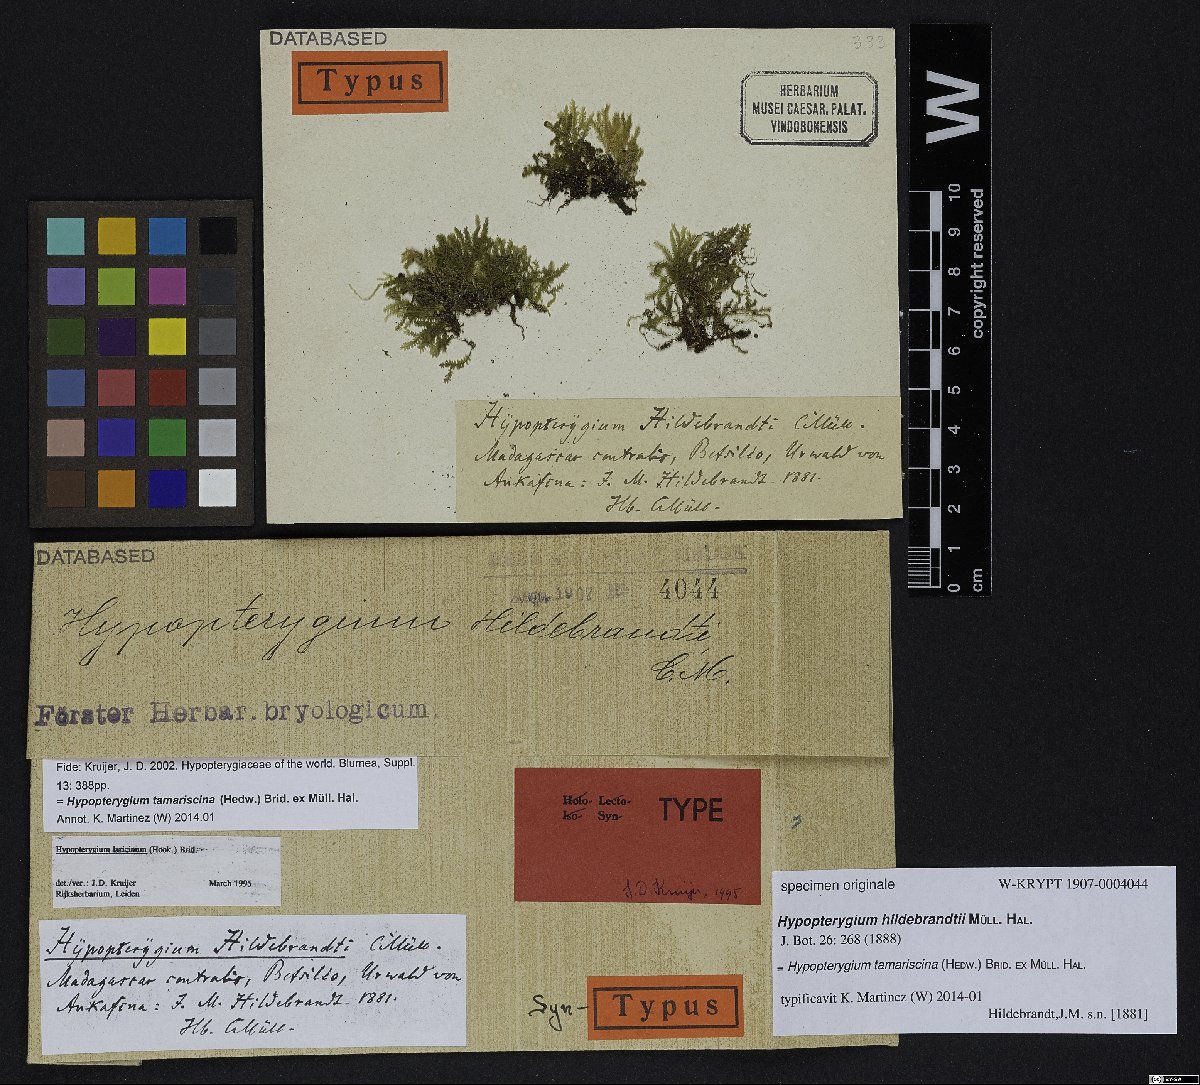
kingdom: Plantae
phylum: Bryophyta
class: Bryopsida
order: Hypopterygiales
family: Hypopterygiaceae
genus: Hypopterygium
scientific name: Hypopterygium tamarisci
